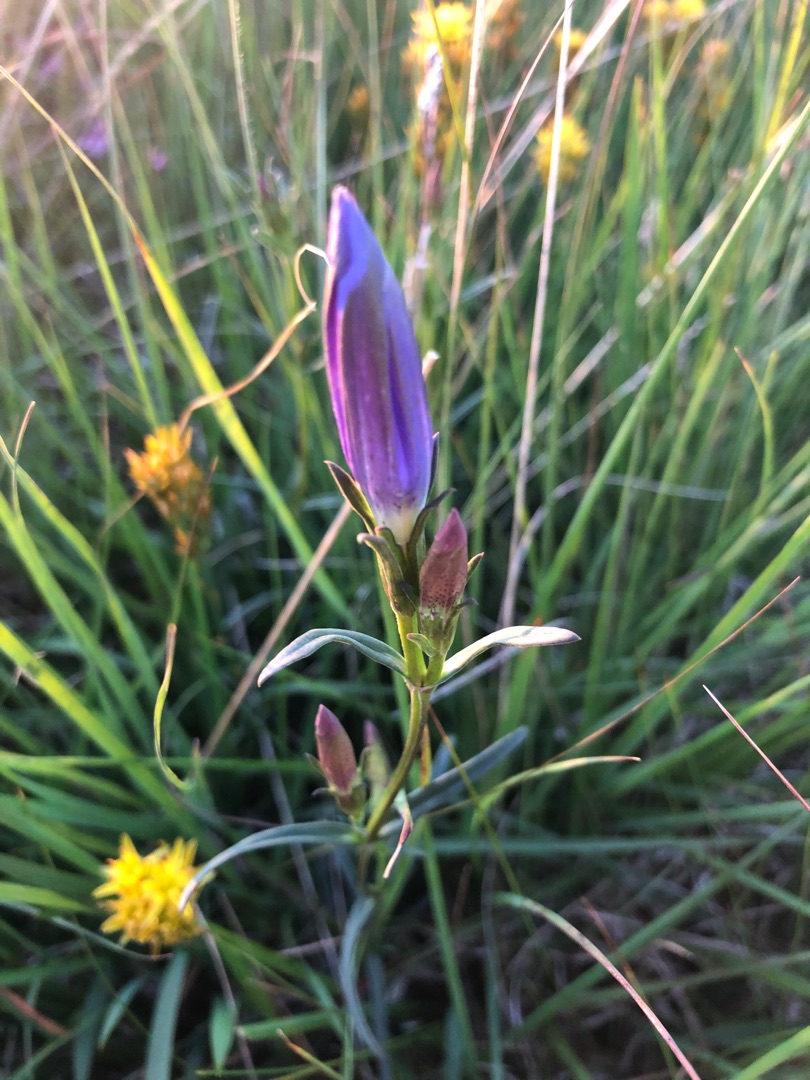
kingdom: Plantae
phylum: Tracheophyta
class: Magnoliopsida
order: Gentianales
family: Gentianaceae
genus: Gentiana
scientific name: Gentiana pneumonanthe
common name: Klokke-ensian
